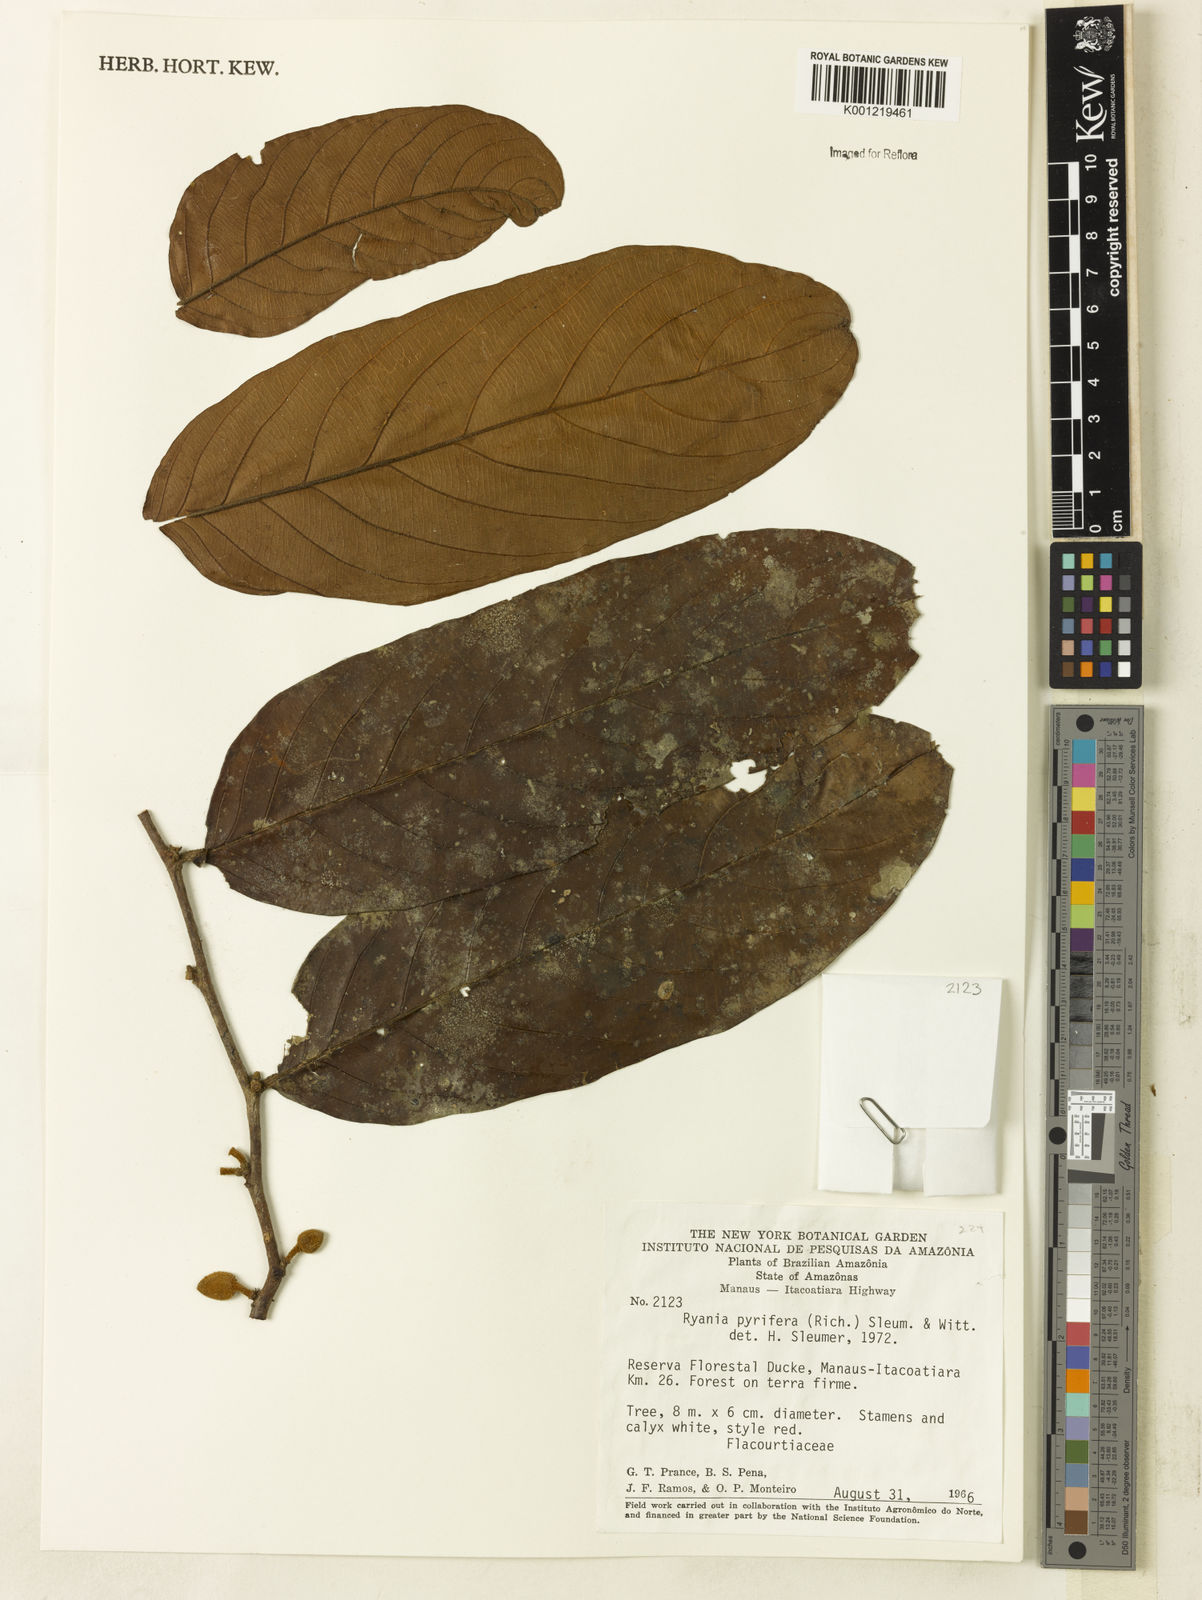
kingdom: Plantae
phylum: Tracheophyta
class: Magnoliopsida
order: Malpighiales
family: Salicaceae
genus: Ryania
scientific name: Ryania pyrifera
